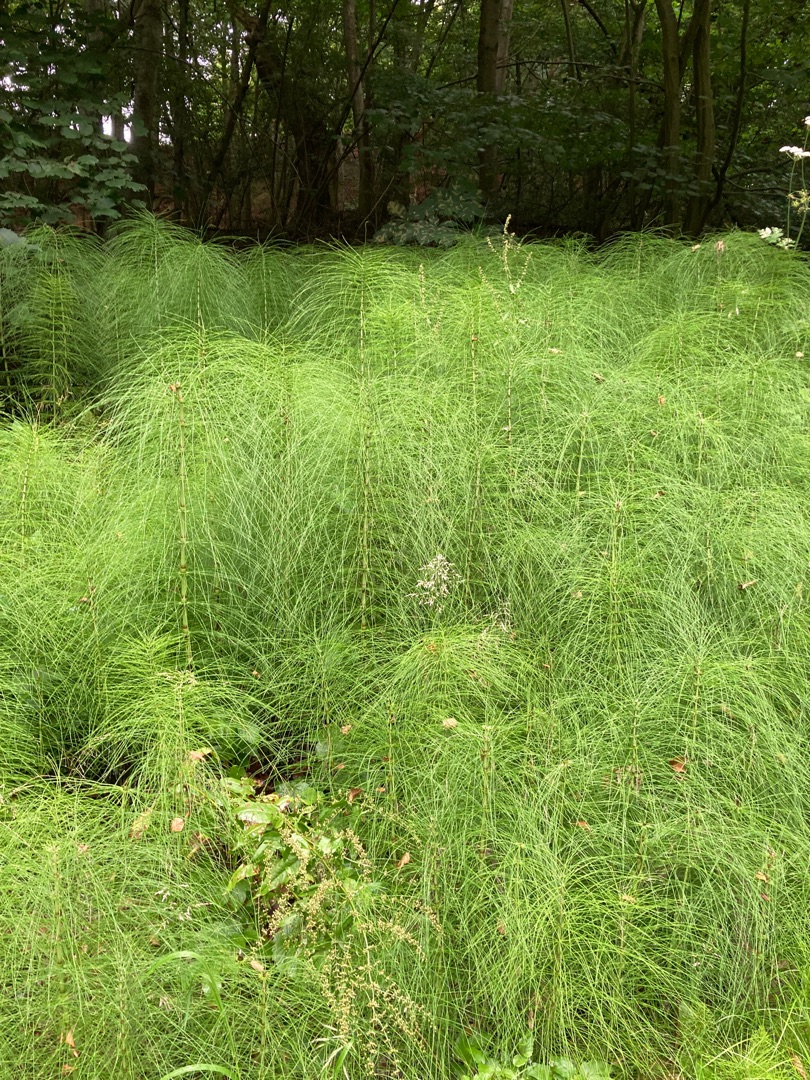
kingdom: Plantae
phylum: Tracheophyta
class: Polypodiopsida
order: Equisetales
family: Equisetaceae
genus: Equisetum
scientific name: Equisetum telmateia
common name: Elfenbens-padderok
